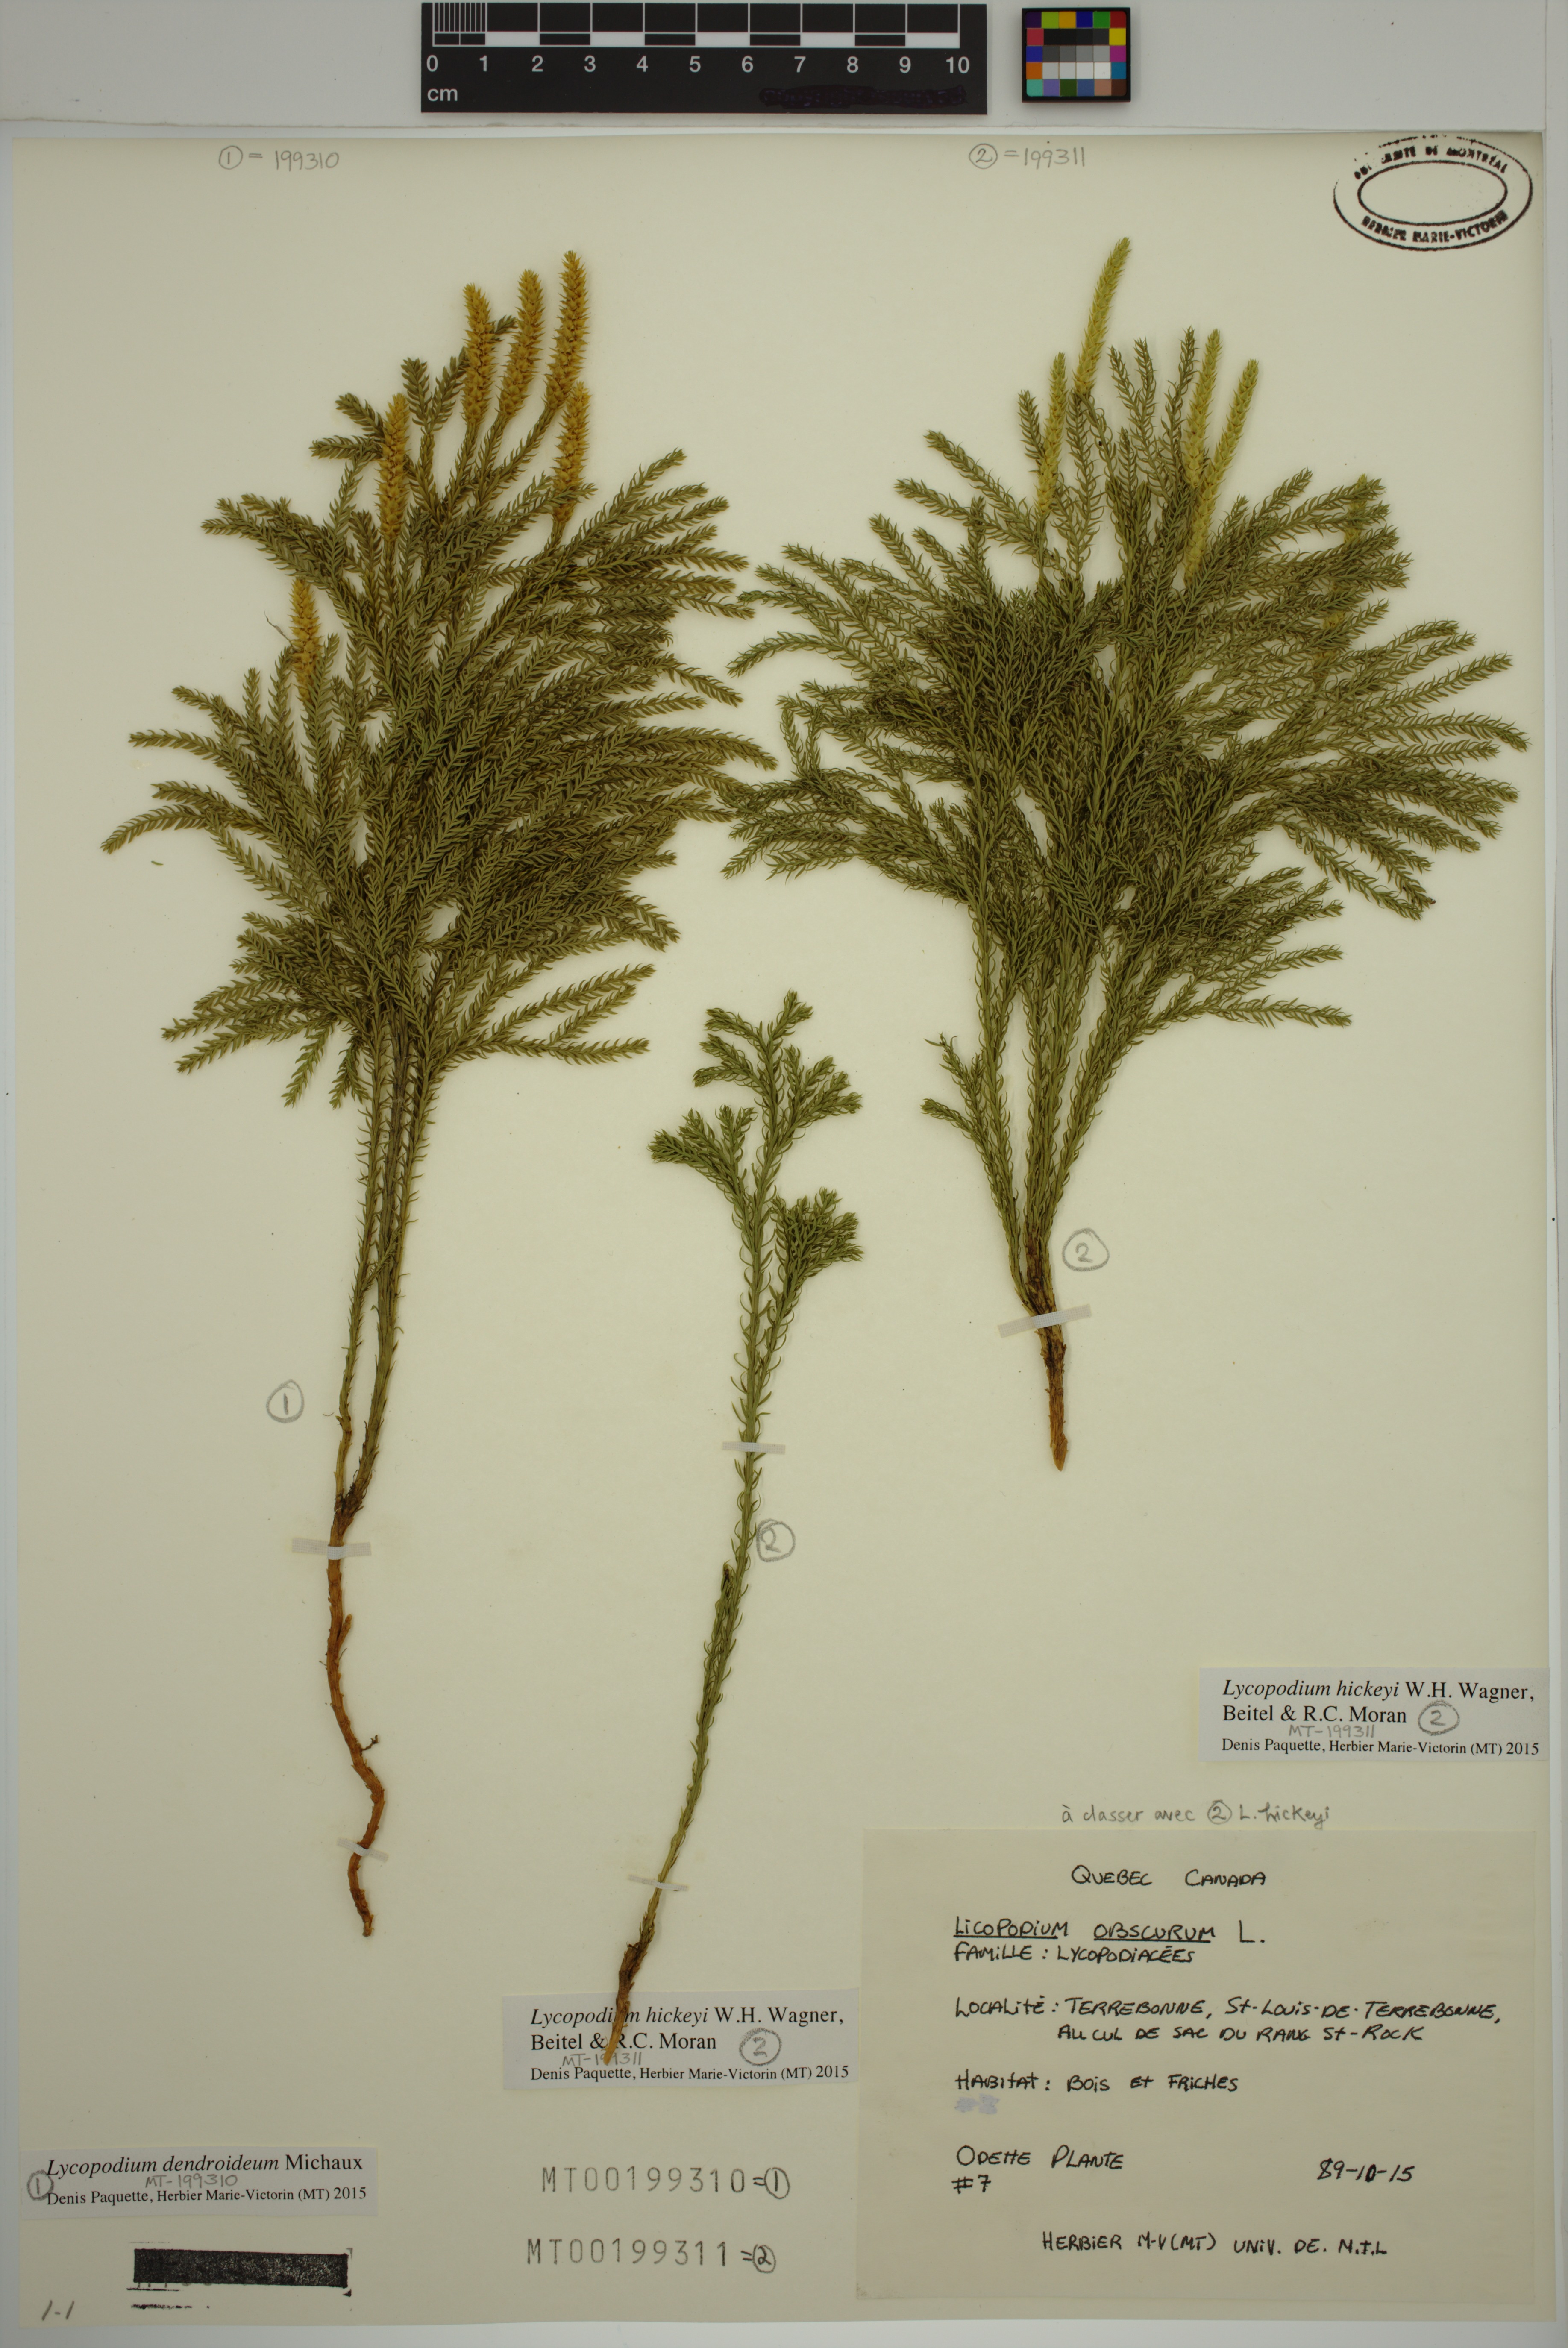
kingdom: Plantae
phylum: Tracheophyta
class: Lycopodiopsida
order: Lycopodiales
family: Lycopodiaceae
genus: Dendrolycopodium
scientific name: Dendrolycopodium hickeyi
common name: Hickey's clubmoss
